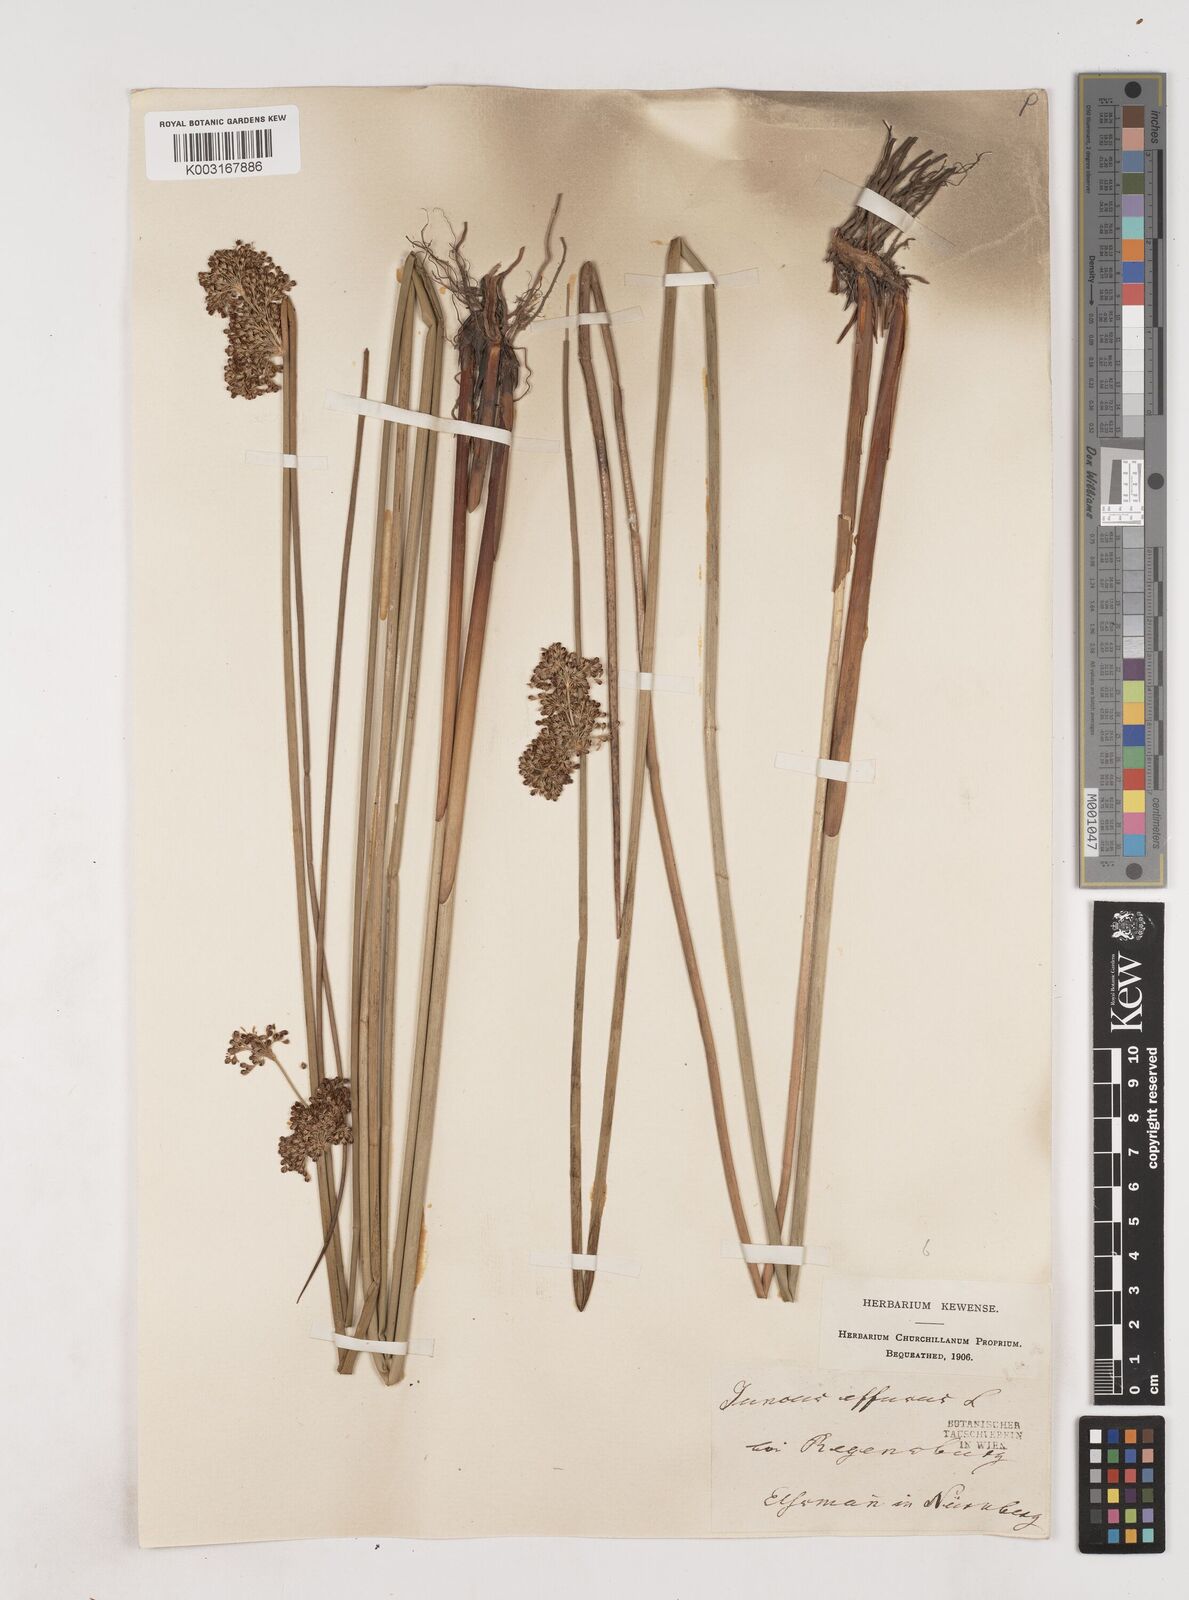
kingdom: Plantae
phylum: Tracheophyta
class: Liliopsida
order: Poales
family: Juncaceae
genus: Juncus
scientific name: Juncus effusus
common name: Soft rush
